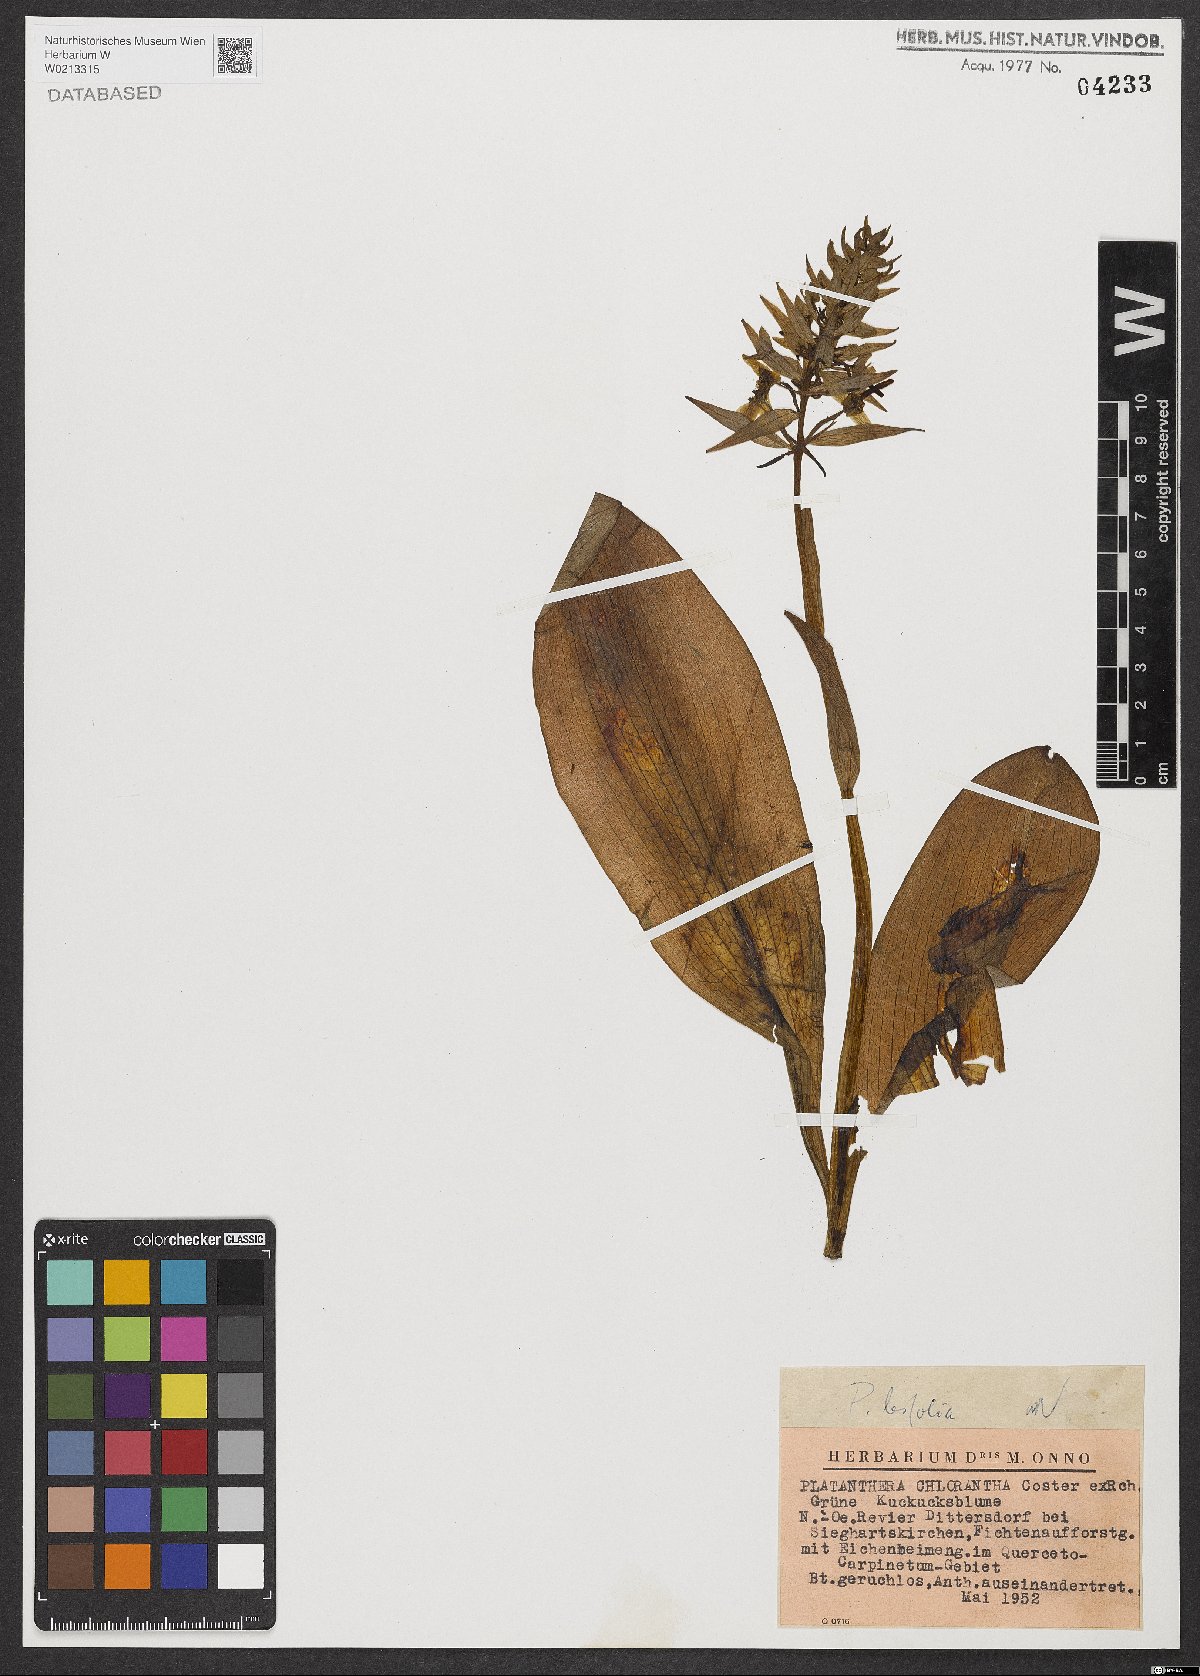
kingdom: Plantae
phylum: Tracheophyta
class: Liliopsida
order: Asparagales
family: Orchidaceae
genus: Platanthera
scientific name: Platanthera bifolia
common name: Lesser butterfly-orchid
